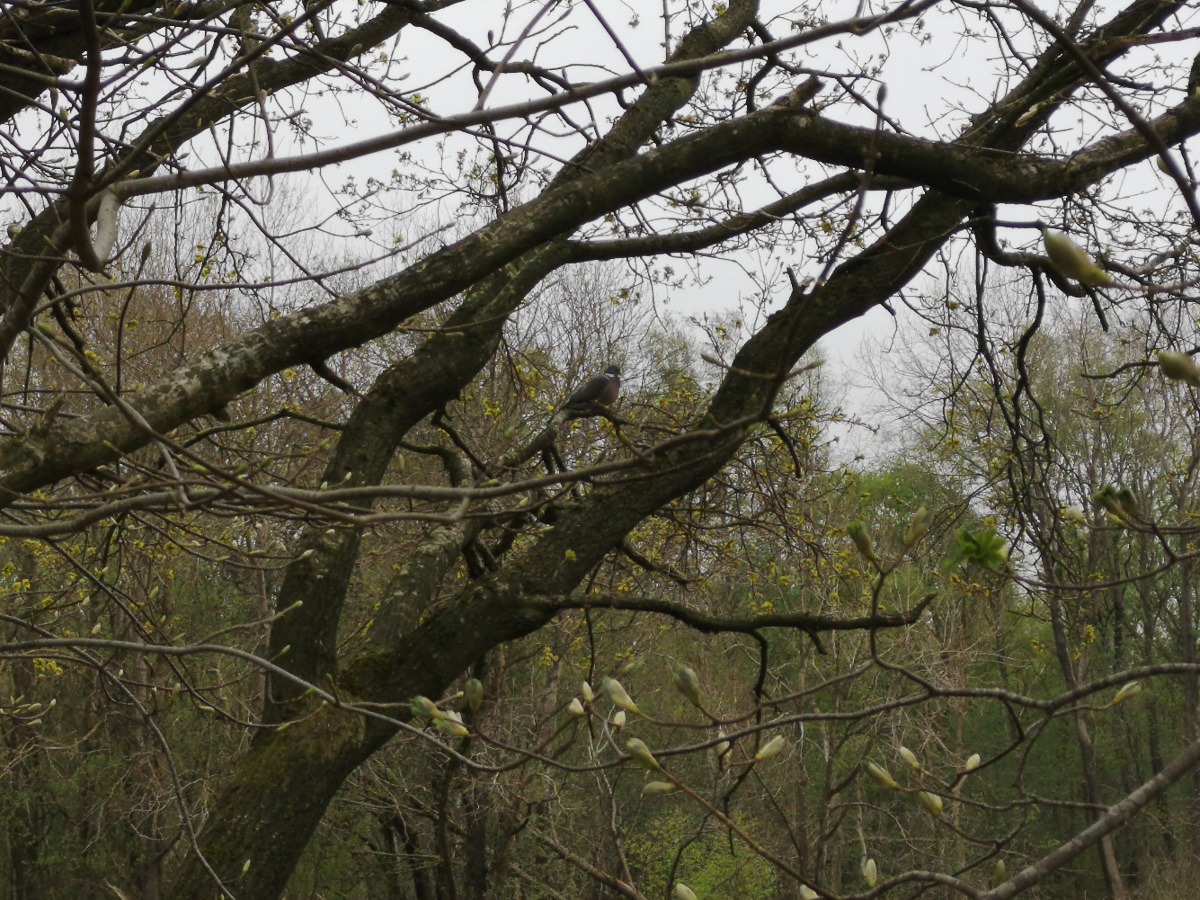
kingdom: Animalia
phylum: Chordata
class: Aves
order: Columbiformes
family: Columbidae
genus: Columba
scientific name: Columba palumbus
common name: Ringdue
